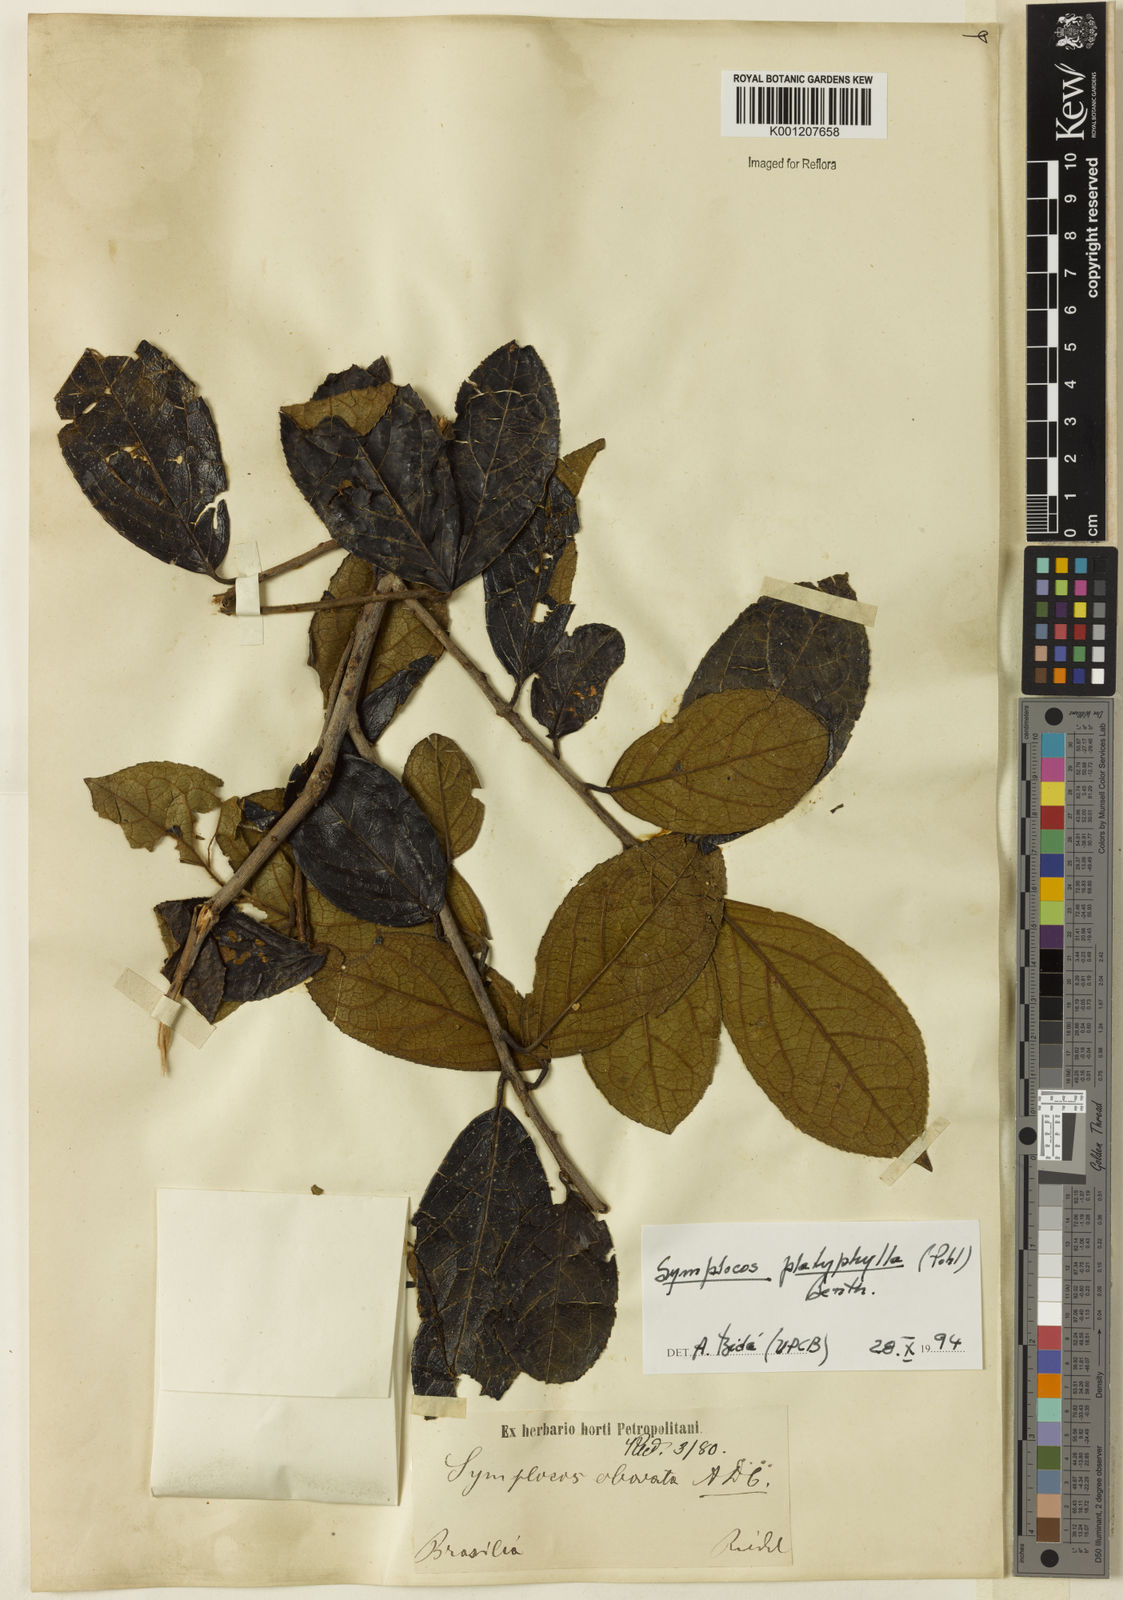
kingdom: Plantae
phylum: Tracheophyta
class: Magnoliopsida
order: Ericales
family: Symplocaceae
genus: Symplocos
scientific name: Symplocos platyphylla
